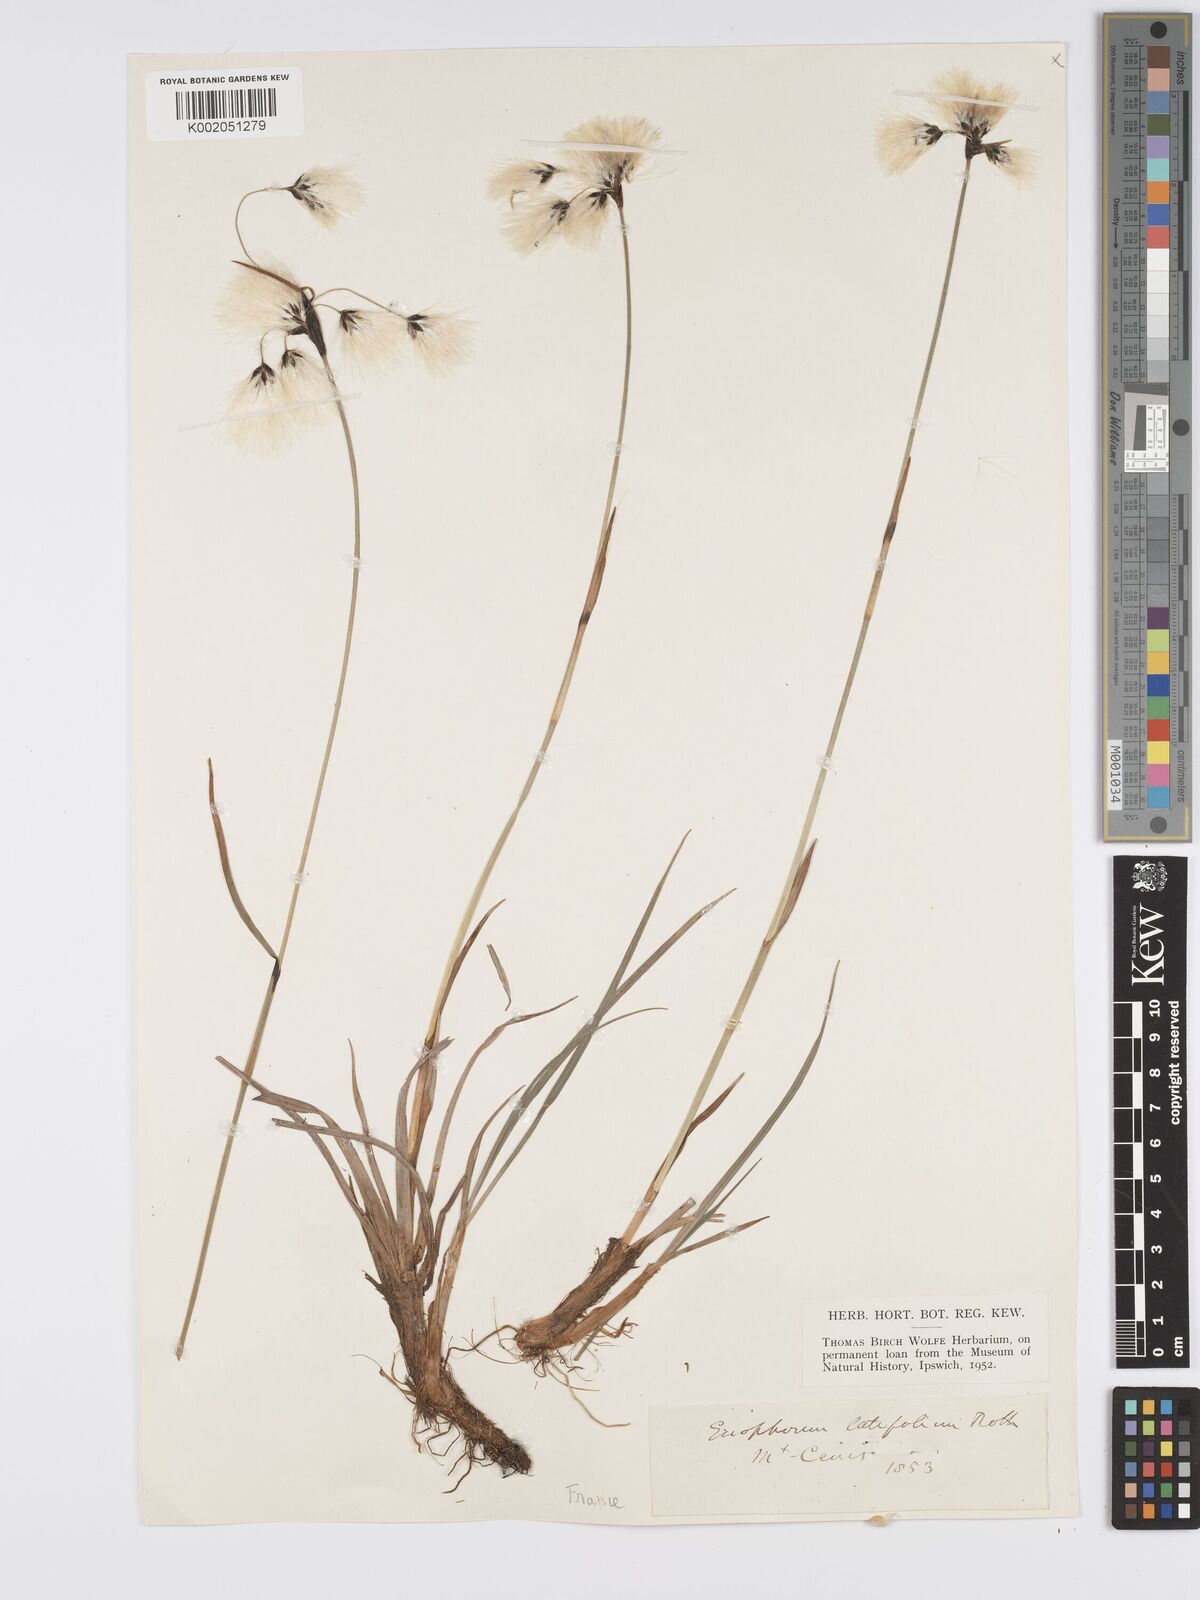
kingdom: Plantae
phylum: Tracheophyta
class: Liliopsida
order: Poales
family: Cyperaceae
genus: Eriophorum
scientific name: Eriophorum latifolium
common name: Broad-leaved cottongrass
